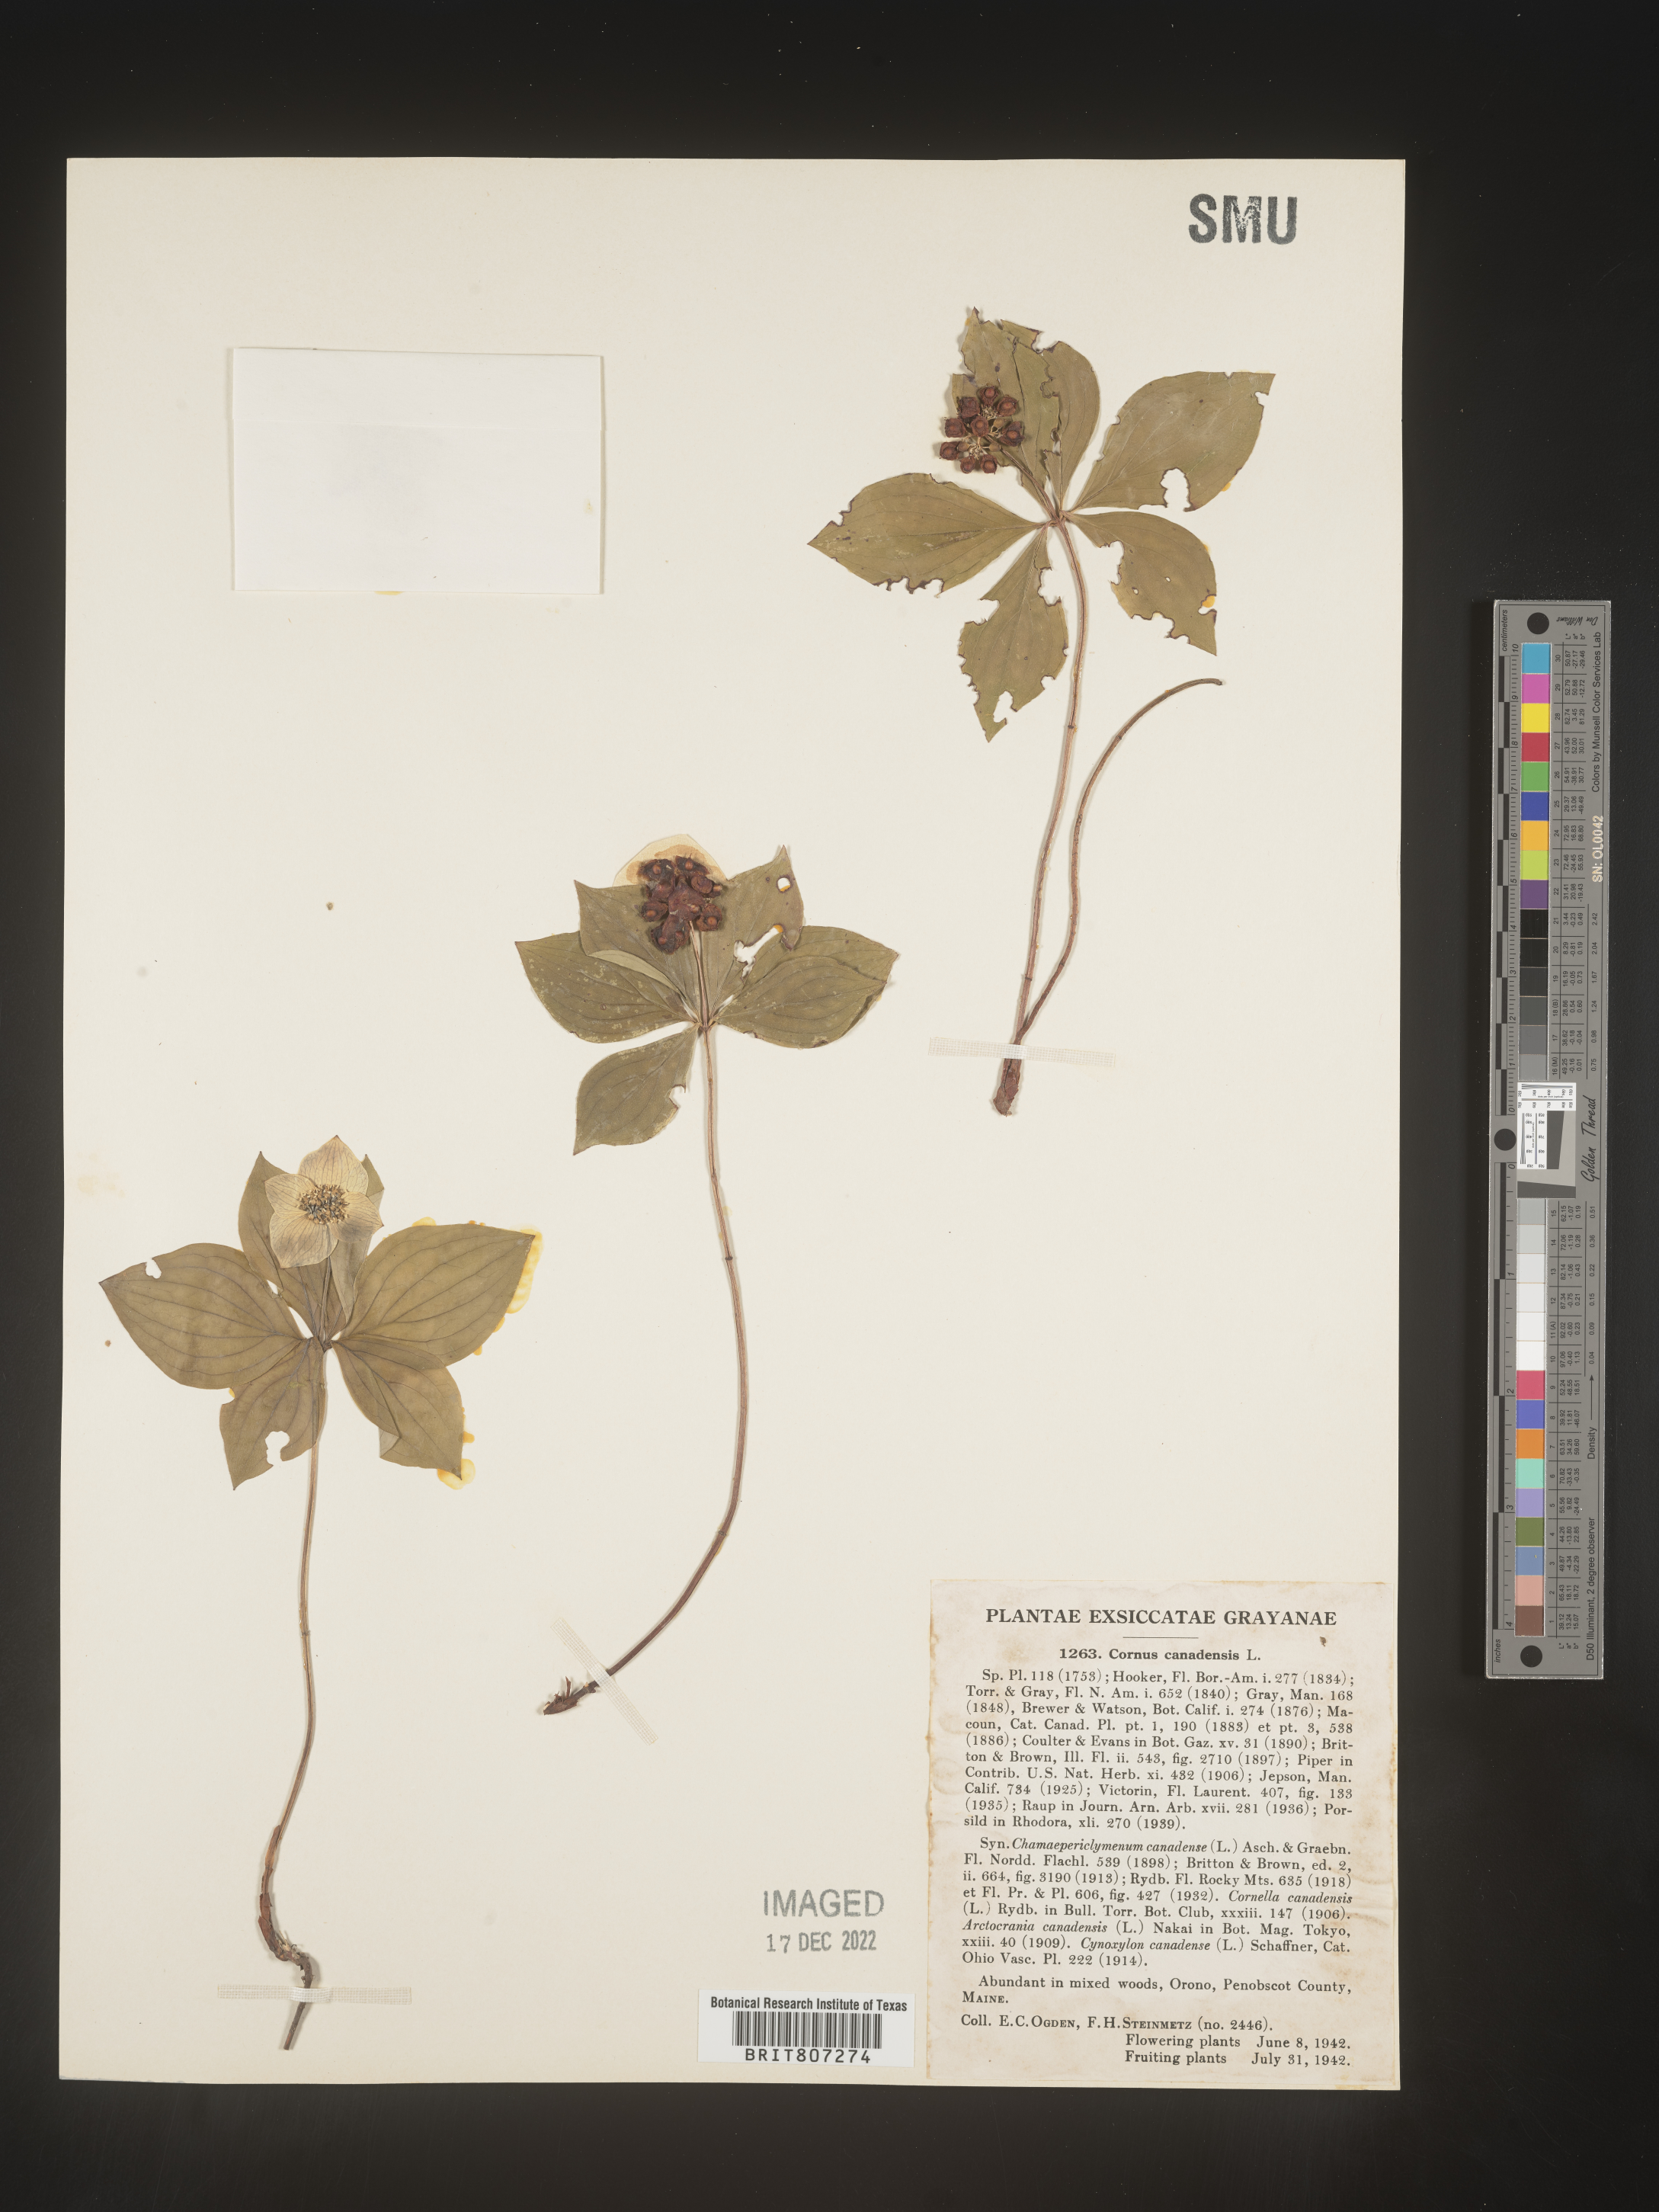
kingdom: Plantae
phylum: Tracheophyta
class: Magnoliopsida
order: Cornales
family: Cornaceae
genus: Cornus
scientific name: Cornus canadensis
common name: Creeping dogwood
